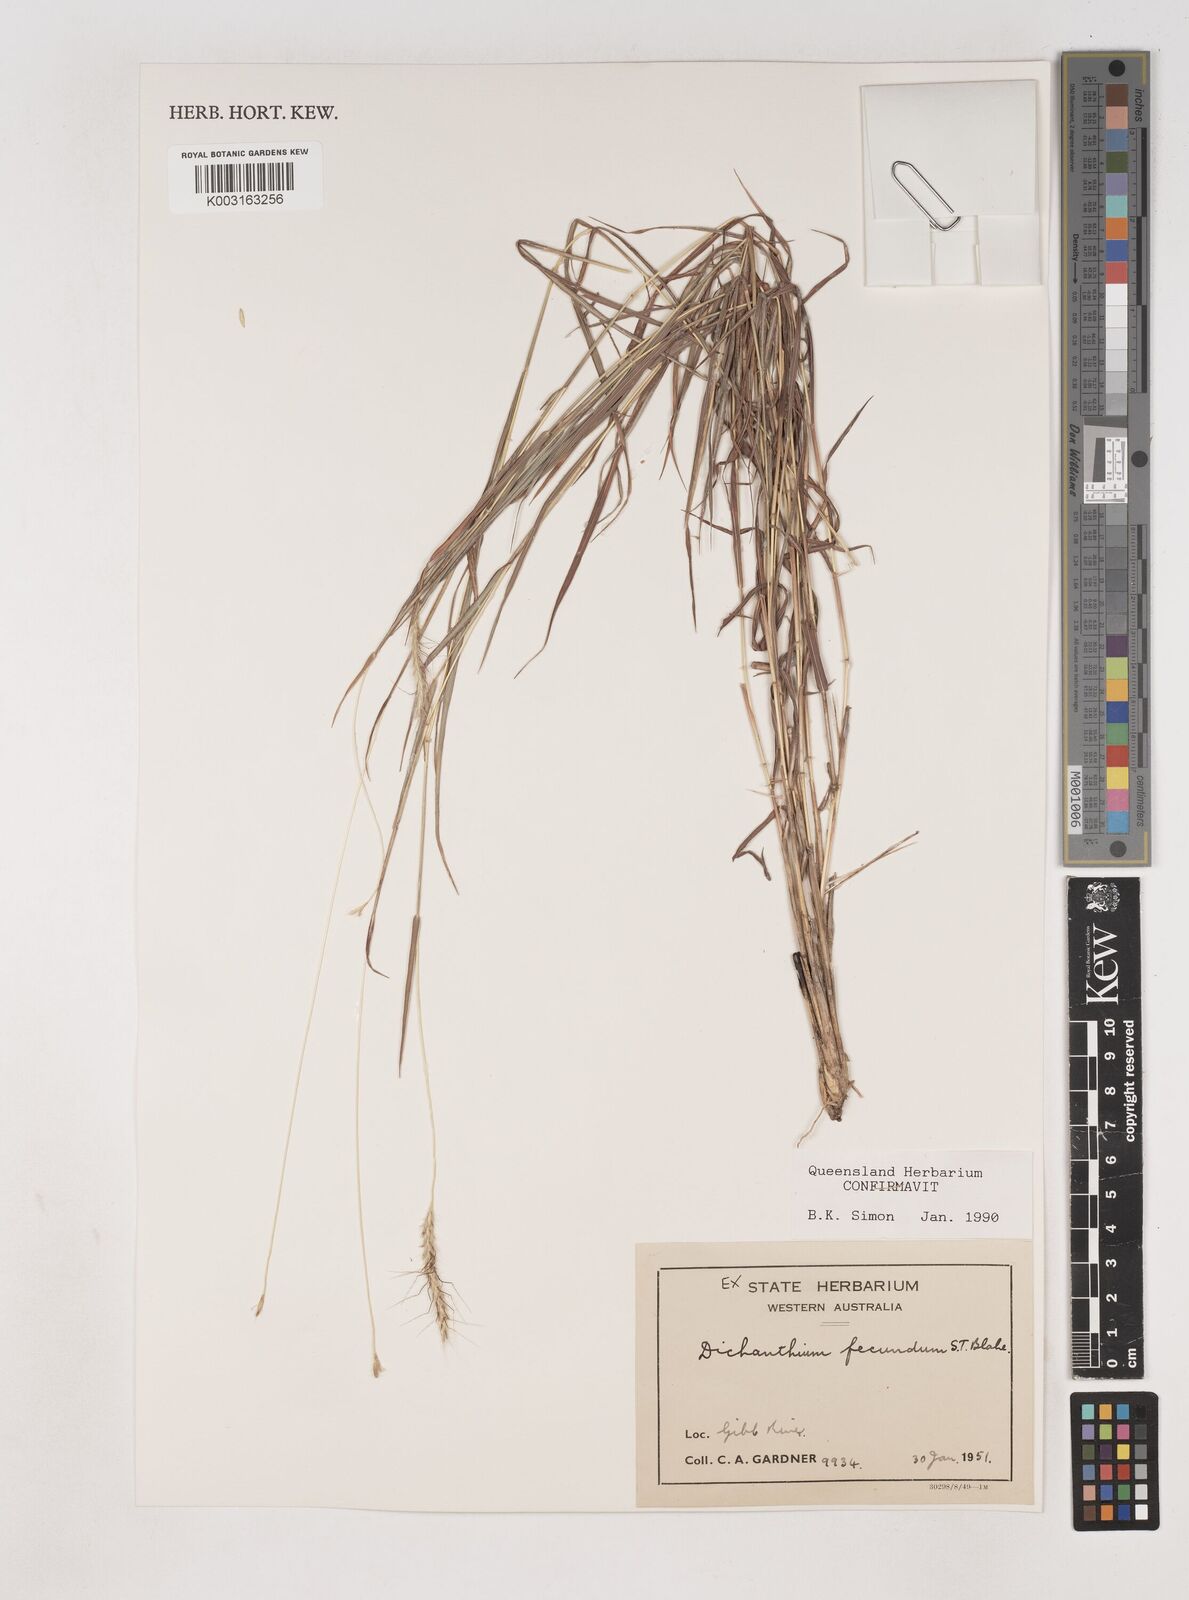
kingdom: Plantae
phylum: Tracheophyta
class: Liliopsida
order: Poales
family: Poaceae
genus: Dichanthium
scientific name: Dichanthium fecundum
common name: Bundle-bundle
